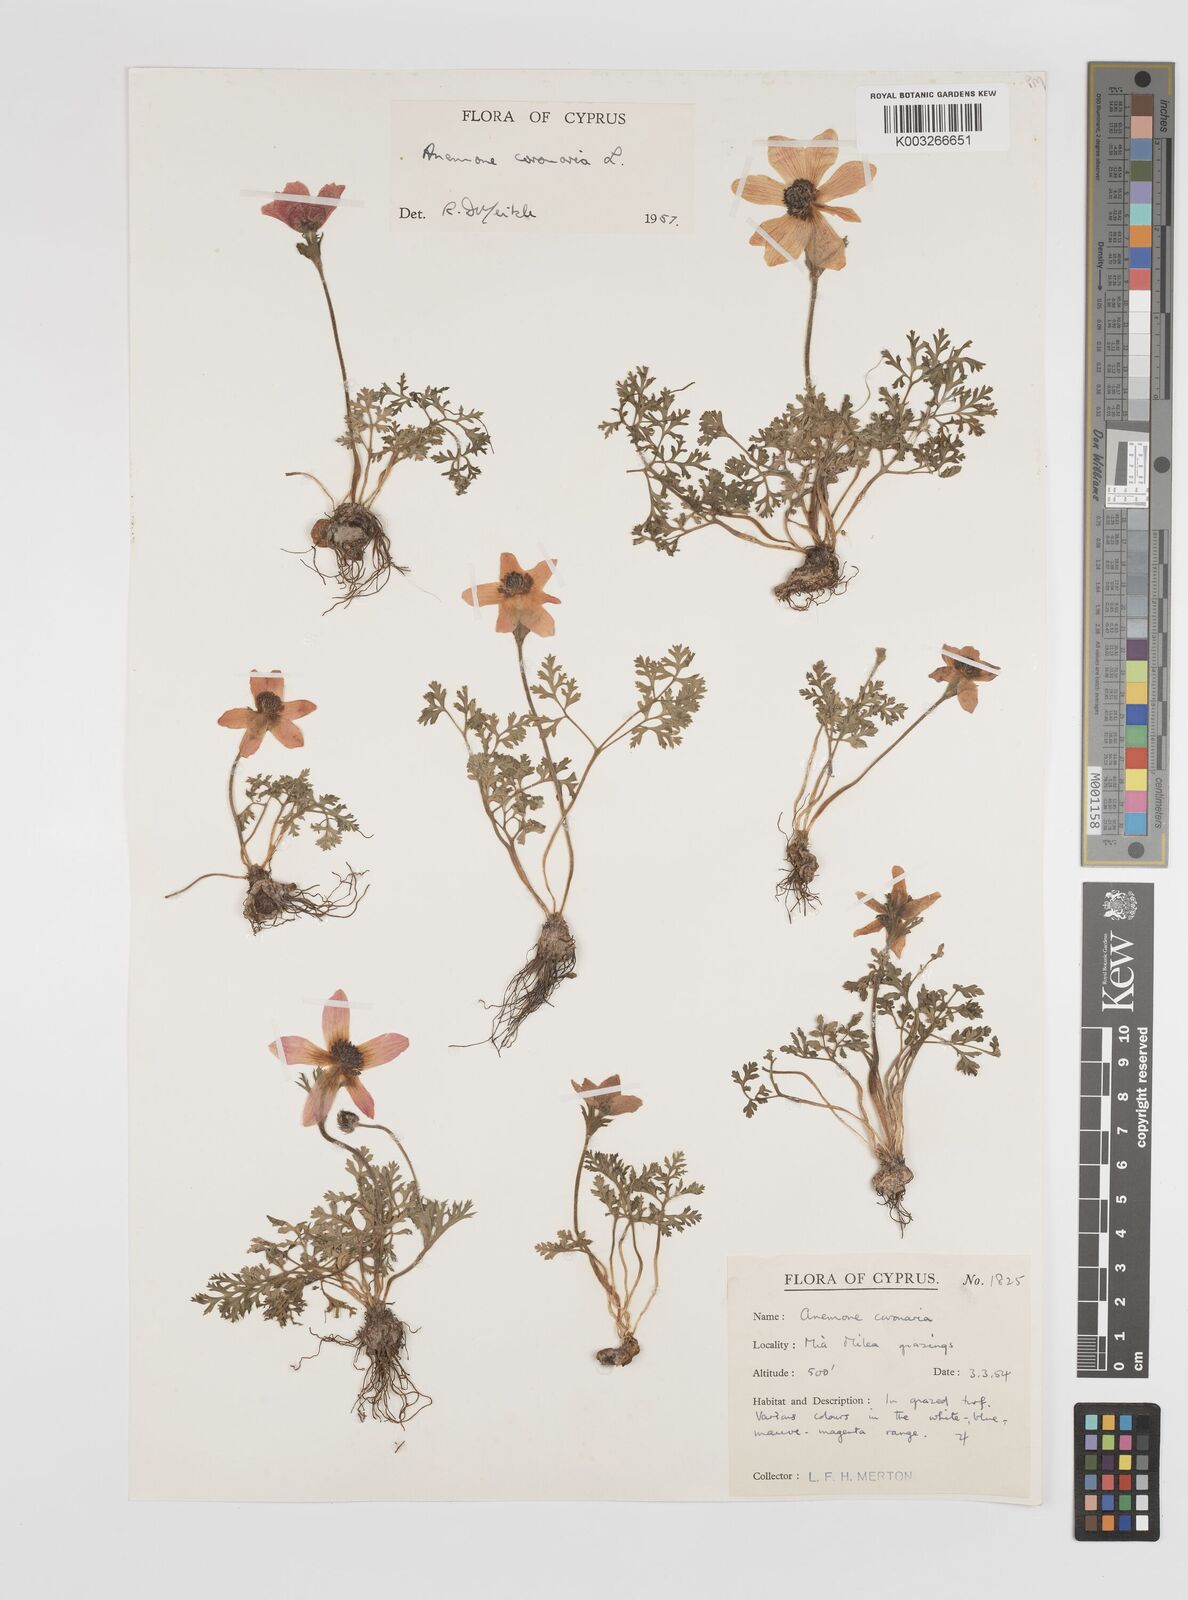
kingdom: Plantae
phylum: Tracheophyta
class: Magnoliopsida
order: Ranunculales
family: Ranunculaceae
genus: Anemone
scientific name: Anemone coronaria
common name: Poppy anemone
